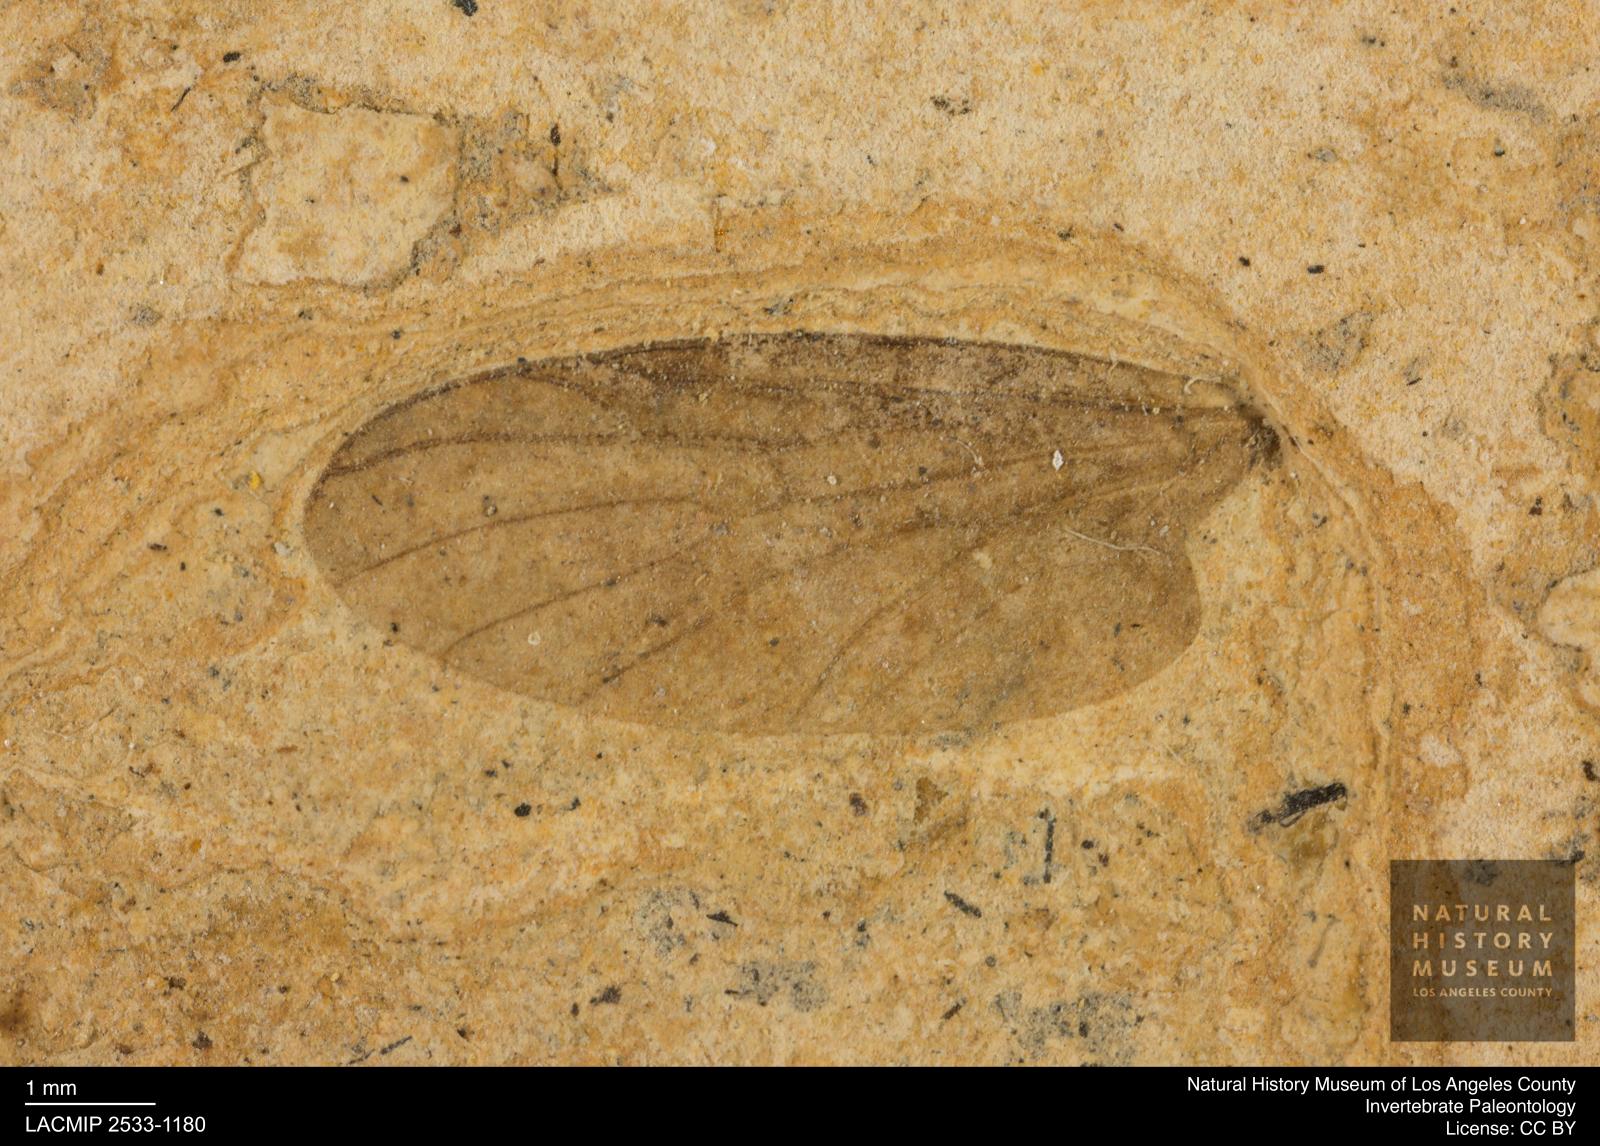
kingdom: Animalia
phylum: Arthropoda
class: Insecta
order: Diptera
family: Bibionidae
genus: Plecia
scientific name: Plecia grossa
